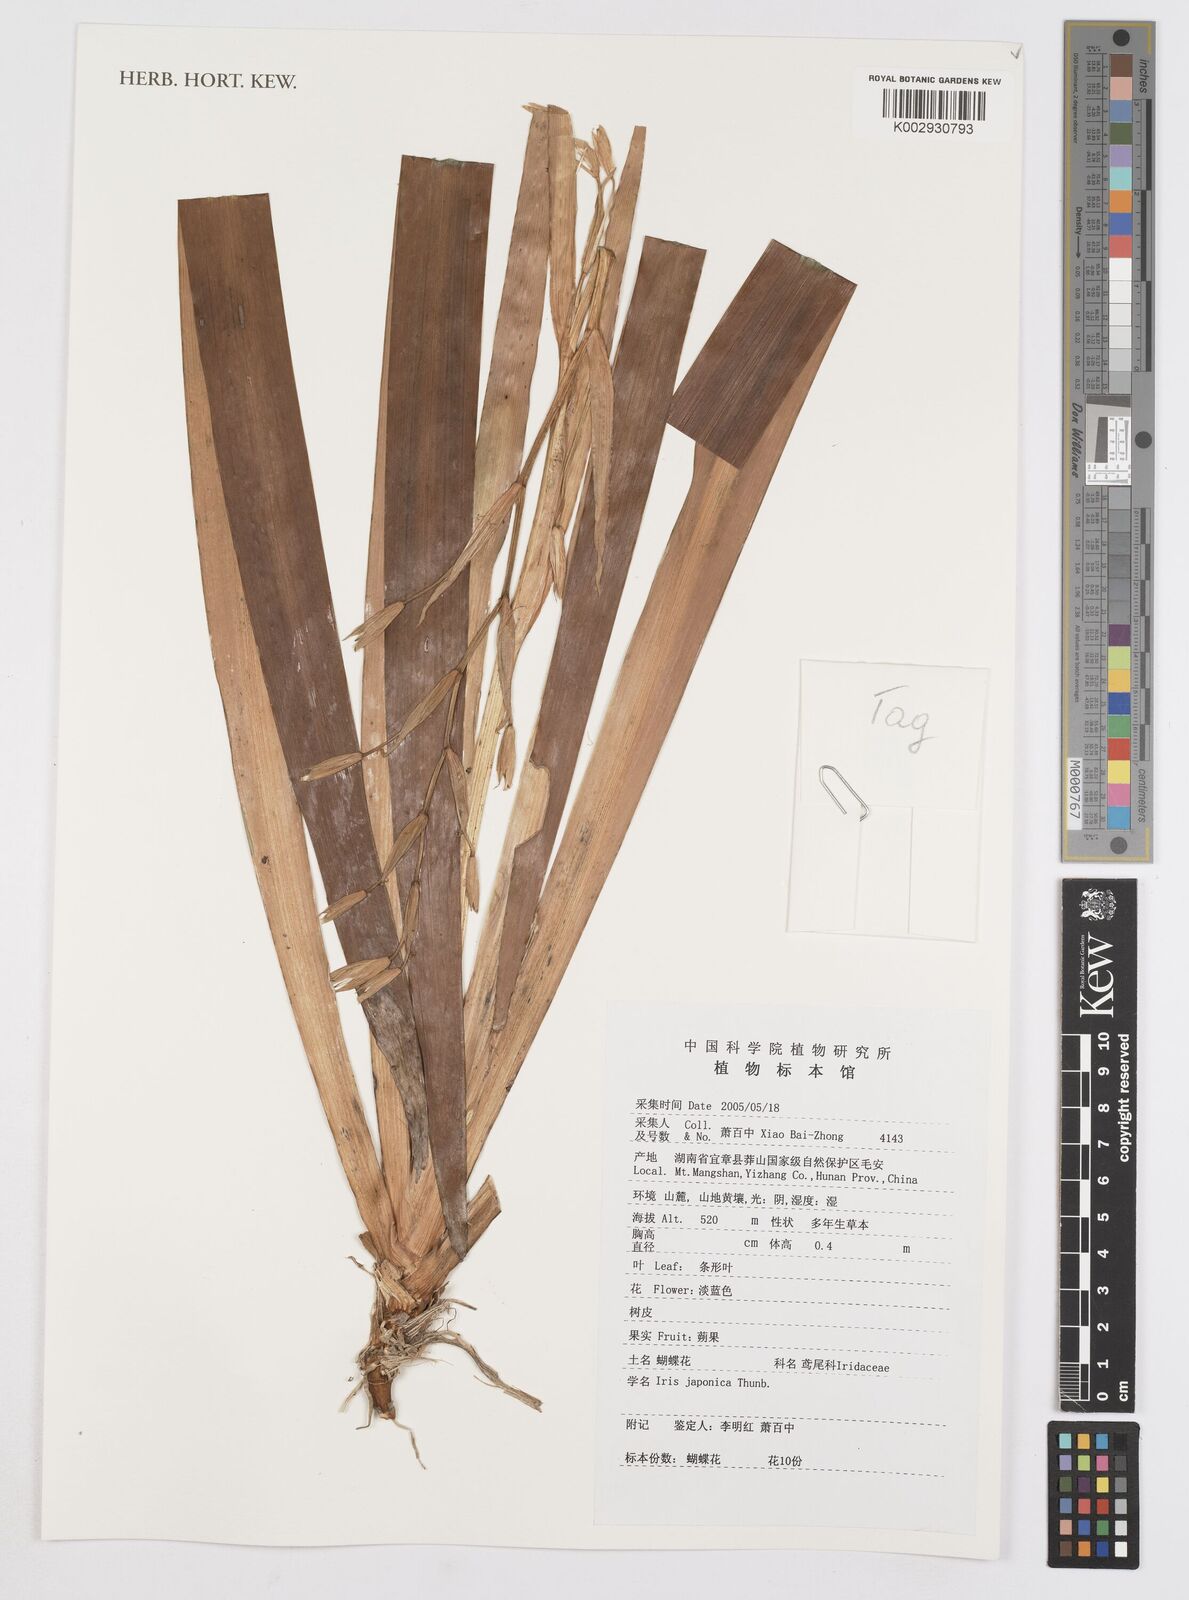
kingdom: Plantae
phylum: Tracheophyta
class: Liliopsida
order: Asparagales
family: Iridaceae
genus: Iris
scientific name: Iris japonica
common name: Butterfly-flower
